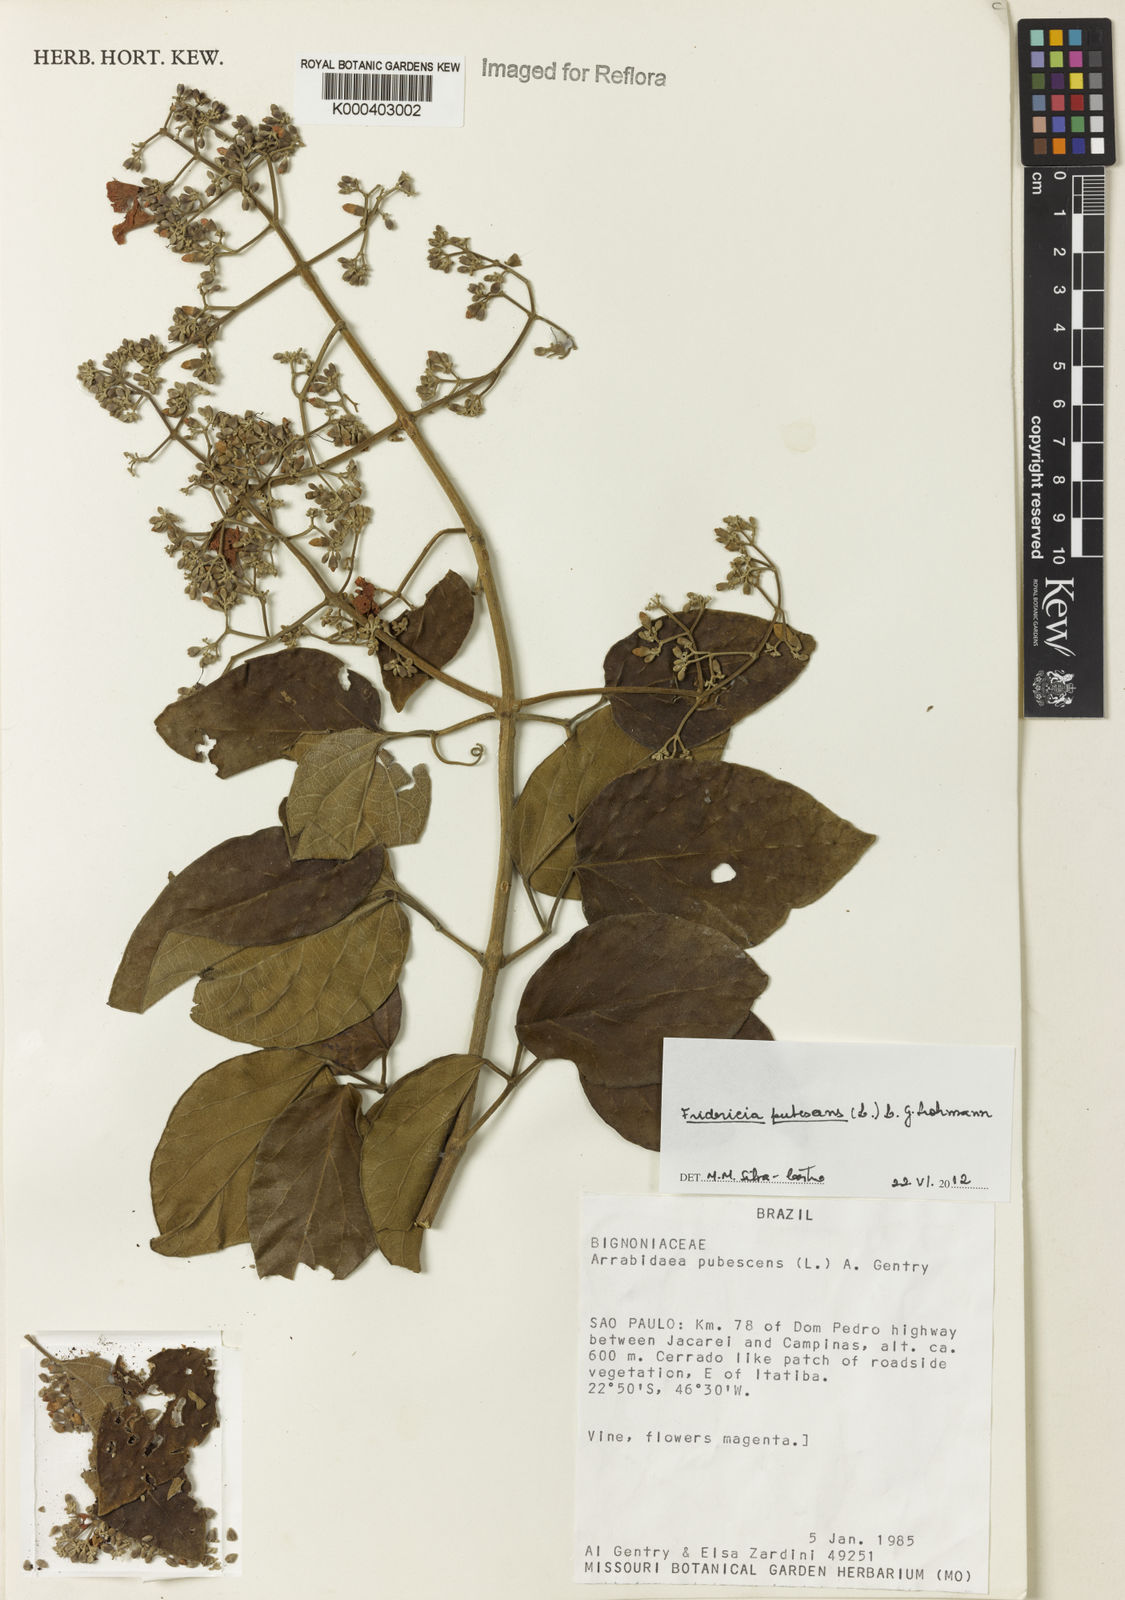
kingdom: Plantae
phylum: Tracheophyta
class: Magnoliopsida
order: Lamiales
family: Bignoniaceae
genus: Fridericia
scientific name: Fridericia pubescens
